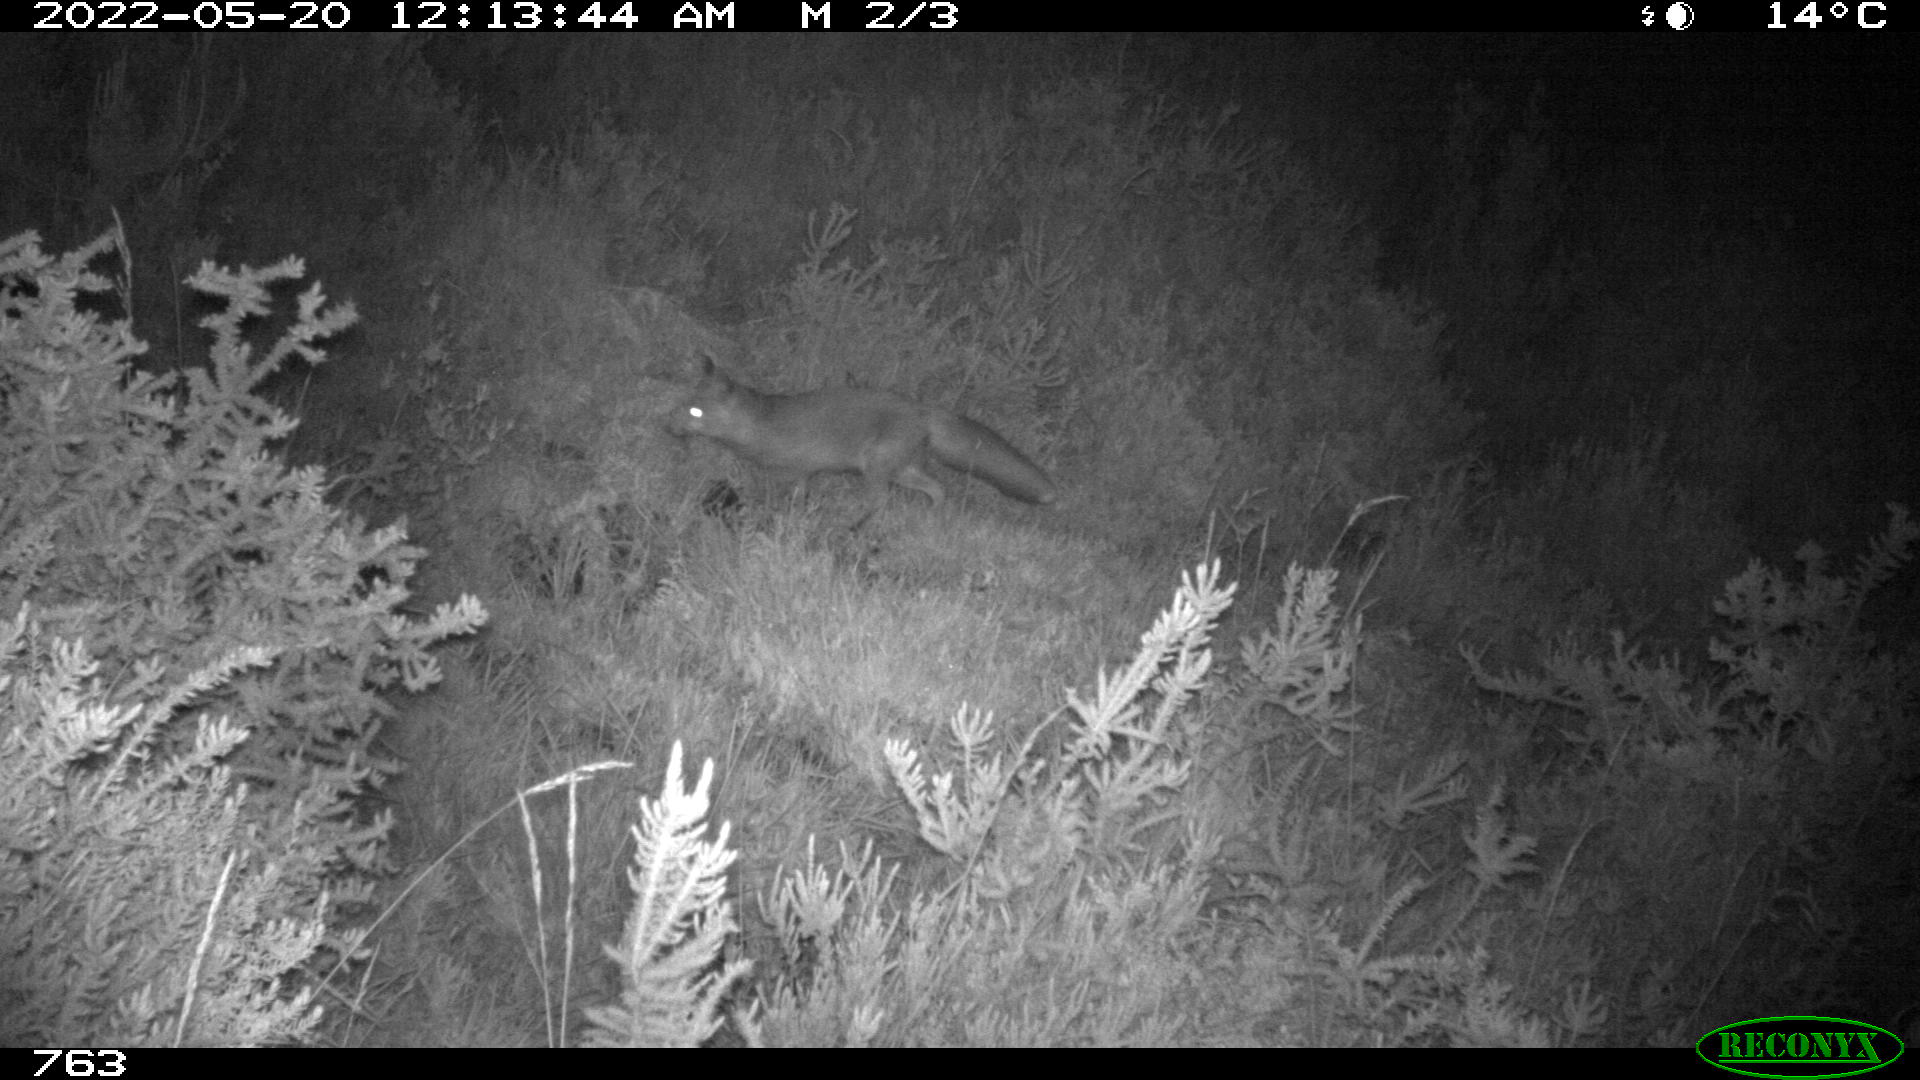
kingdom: Animalia
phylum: Chordata
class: Mammalia
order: Carnivora
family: Canidae
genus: Vulpes
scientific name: Vulpes vulpes
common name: Red fox
